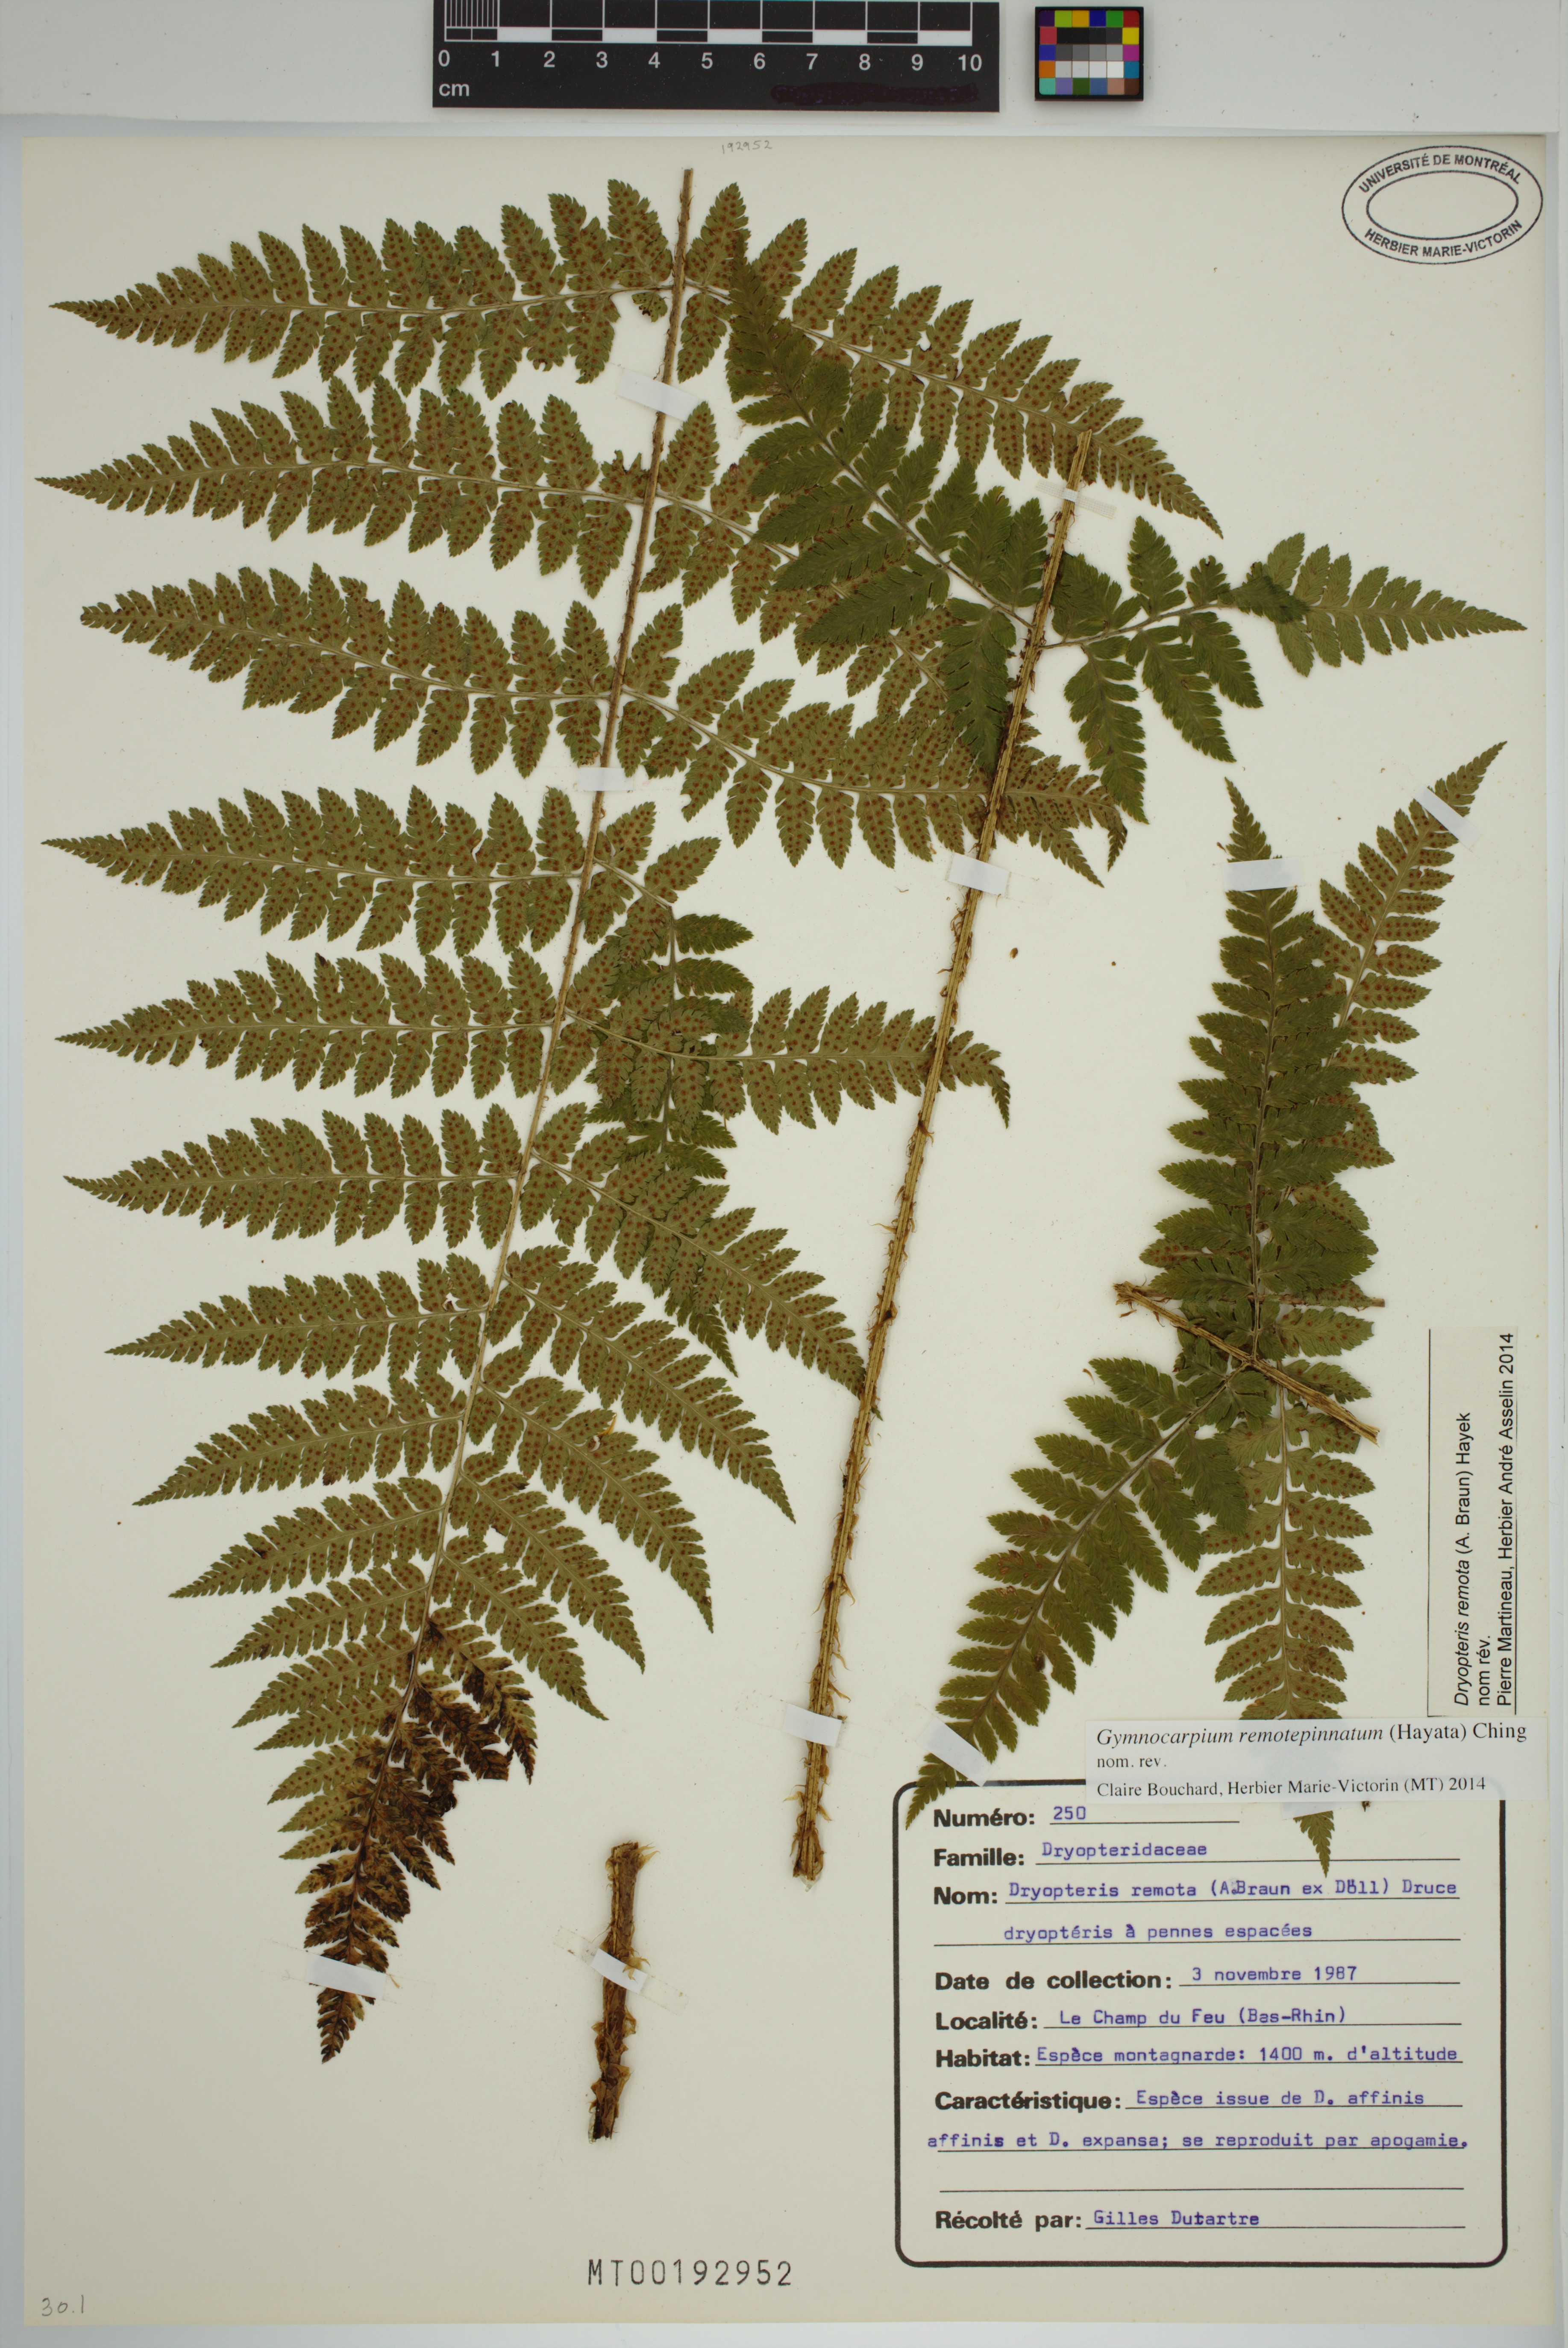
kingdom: Plantae
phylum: Tracheophyta
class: Polypodiopsida
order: Polypodiales
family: Dryopteridaceae
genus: Dryopteris
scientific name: Dryopteris remota
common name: Scaly buckler-fern
